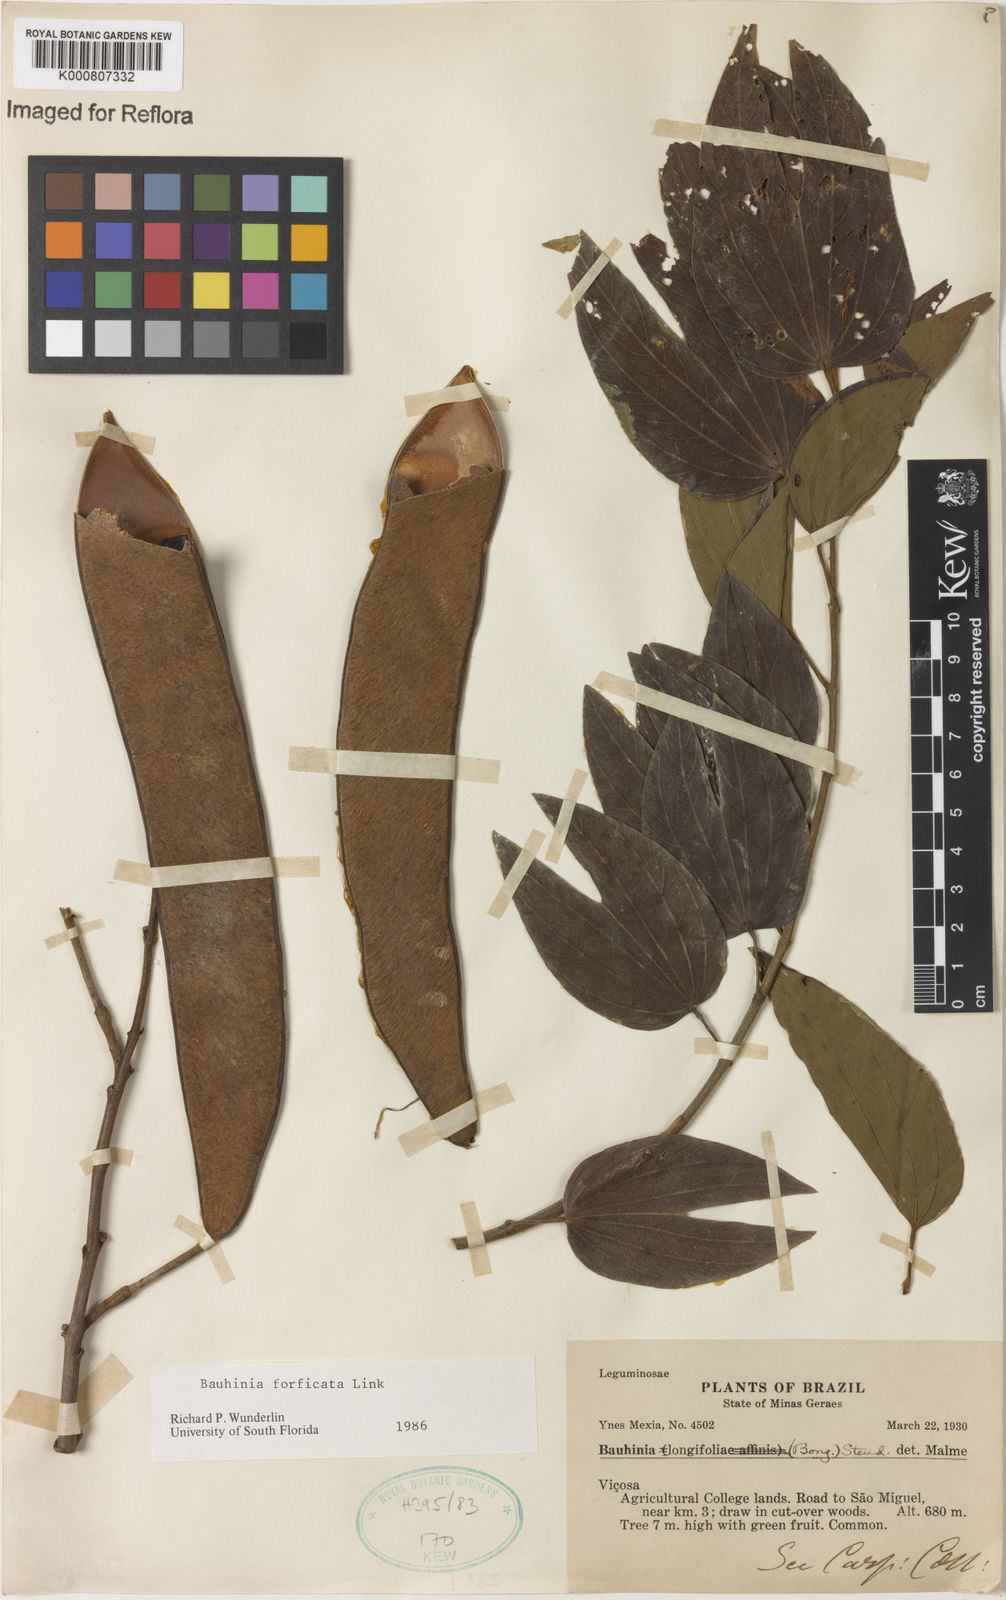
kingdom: Plantae
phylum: Tracheophyta
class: Magnoliopsida
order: Fabales
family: Fabaceae
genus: Bauhinia
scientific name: Bauhinia forficata
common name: Orchid tree
